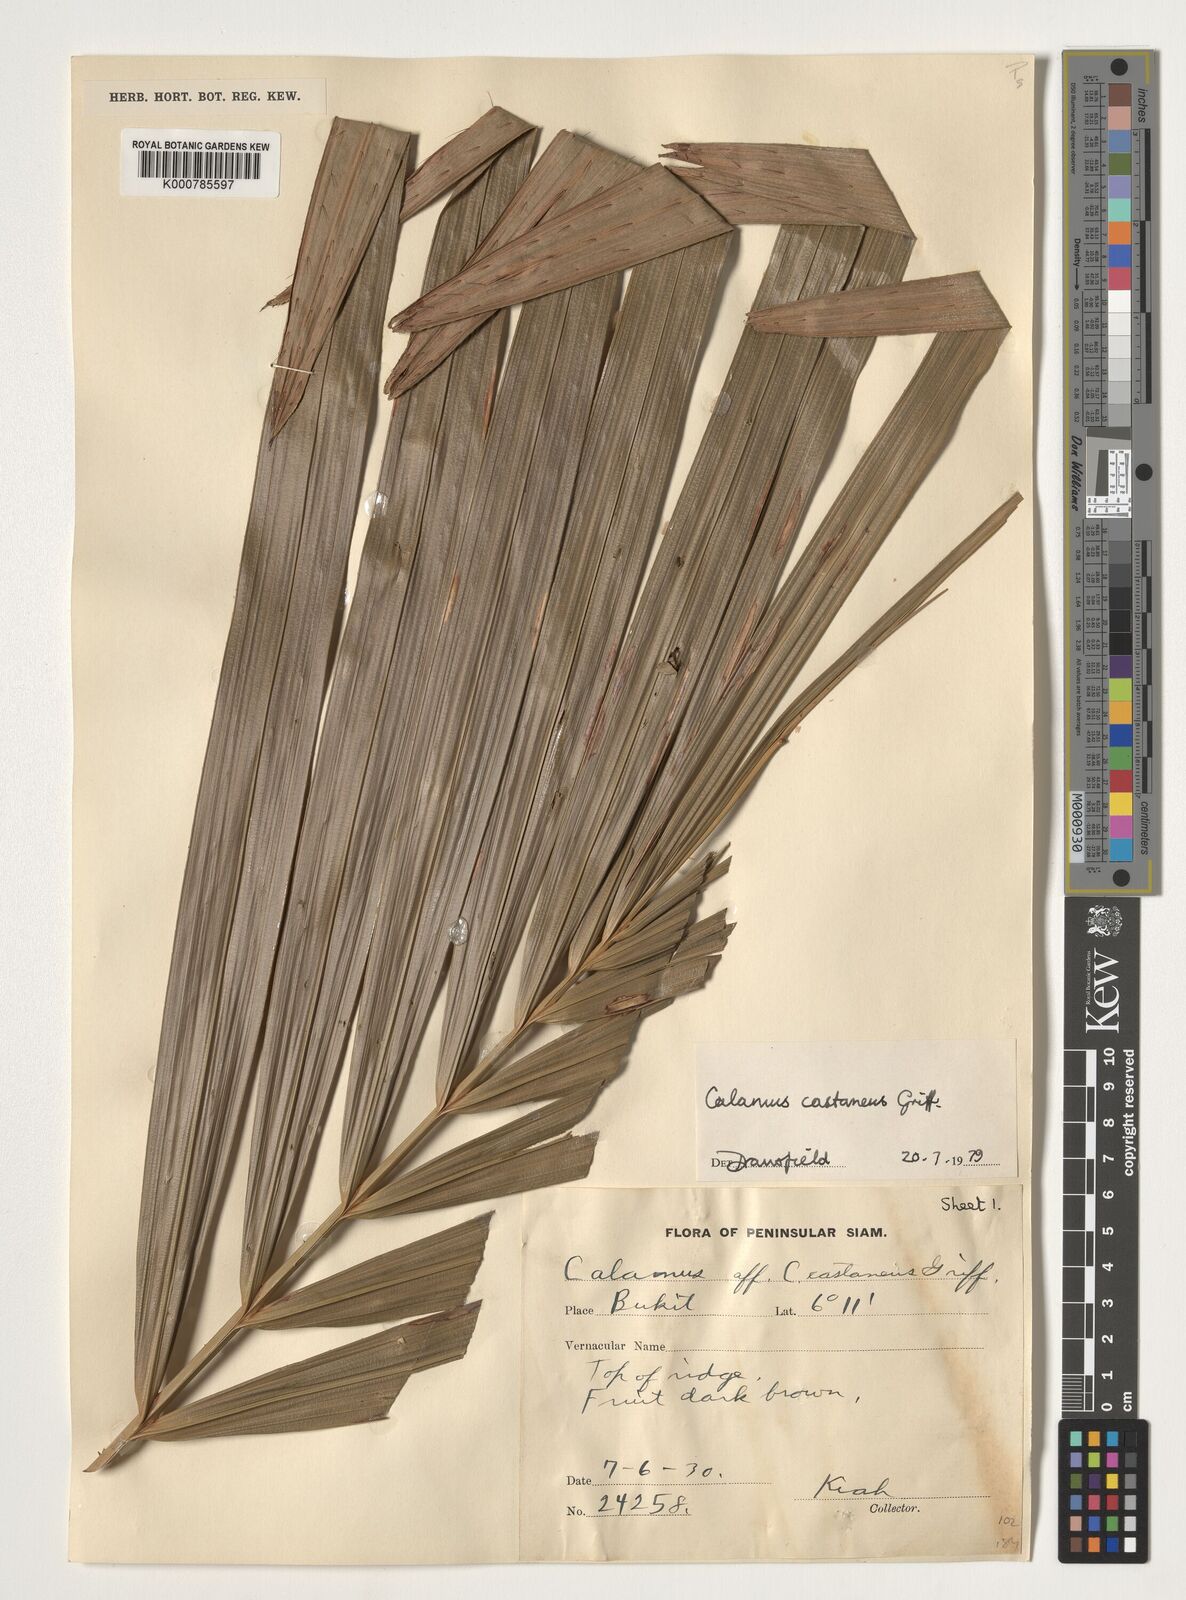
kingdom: Plantae
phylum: Tracheophyta
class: Liliopsida
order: Arecales
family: Arecaceae
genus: Calamus
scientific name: Calamus castaneus
